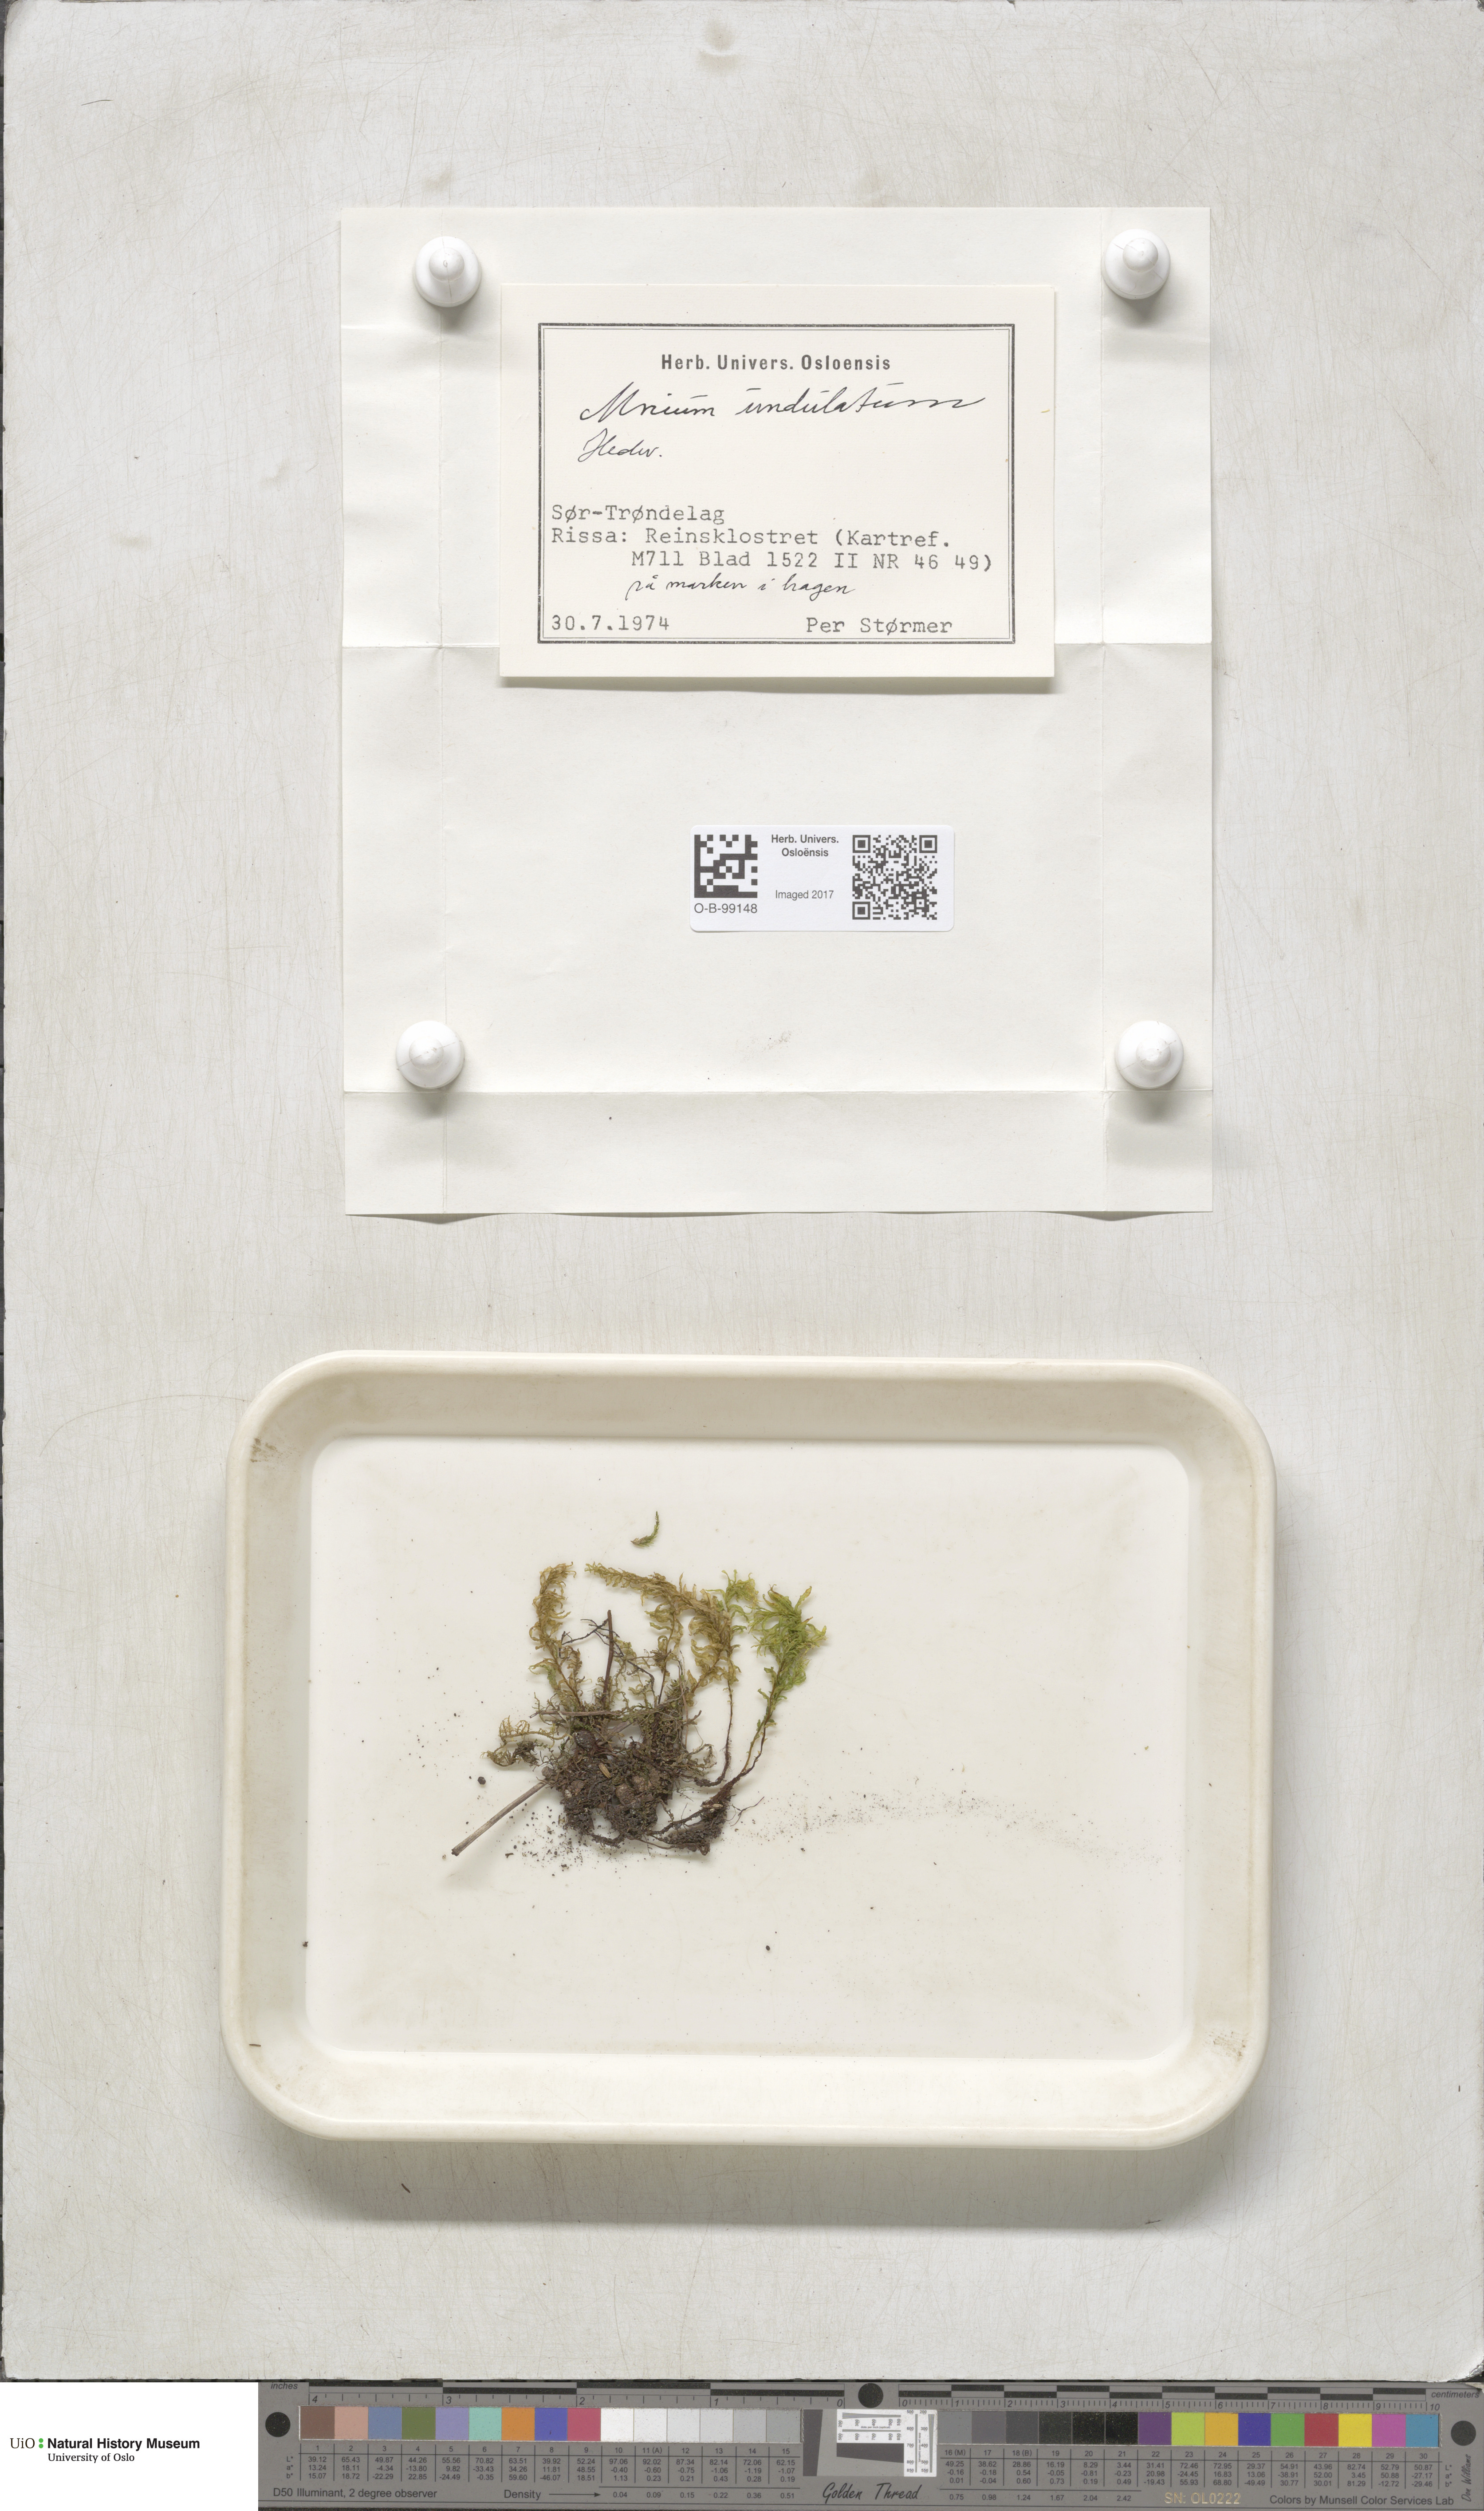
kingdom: Plantae
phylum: Bryophyta
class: Bryopsida
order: Bryales
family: Mniaceae
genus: Plagiomnium
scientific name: Plagiomnium undulatum
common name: Hart's-tongue thyme-moss
